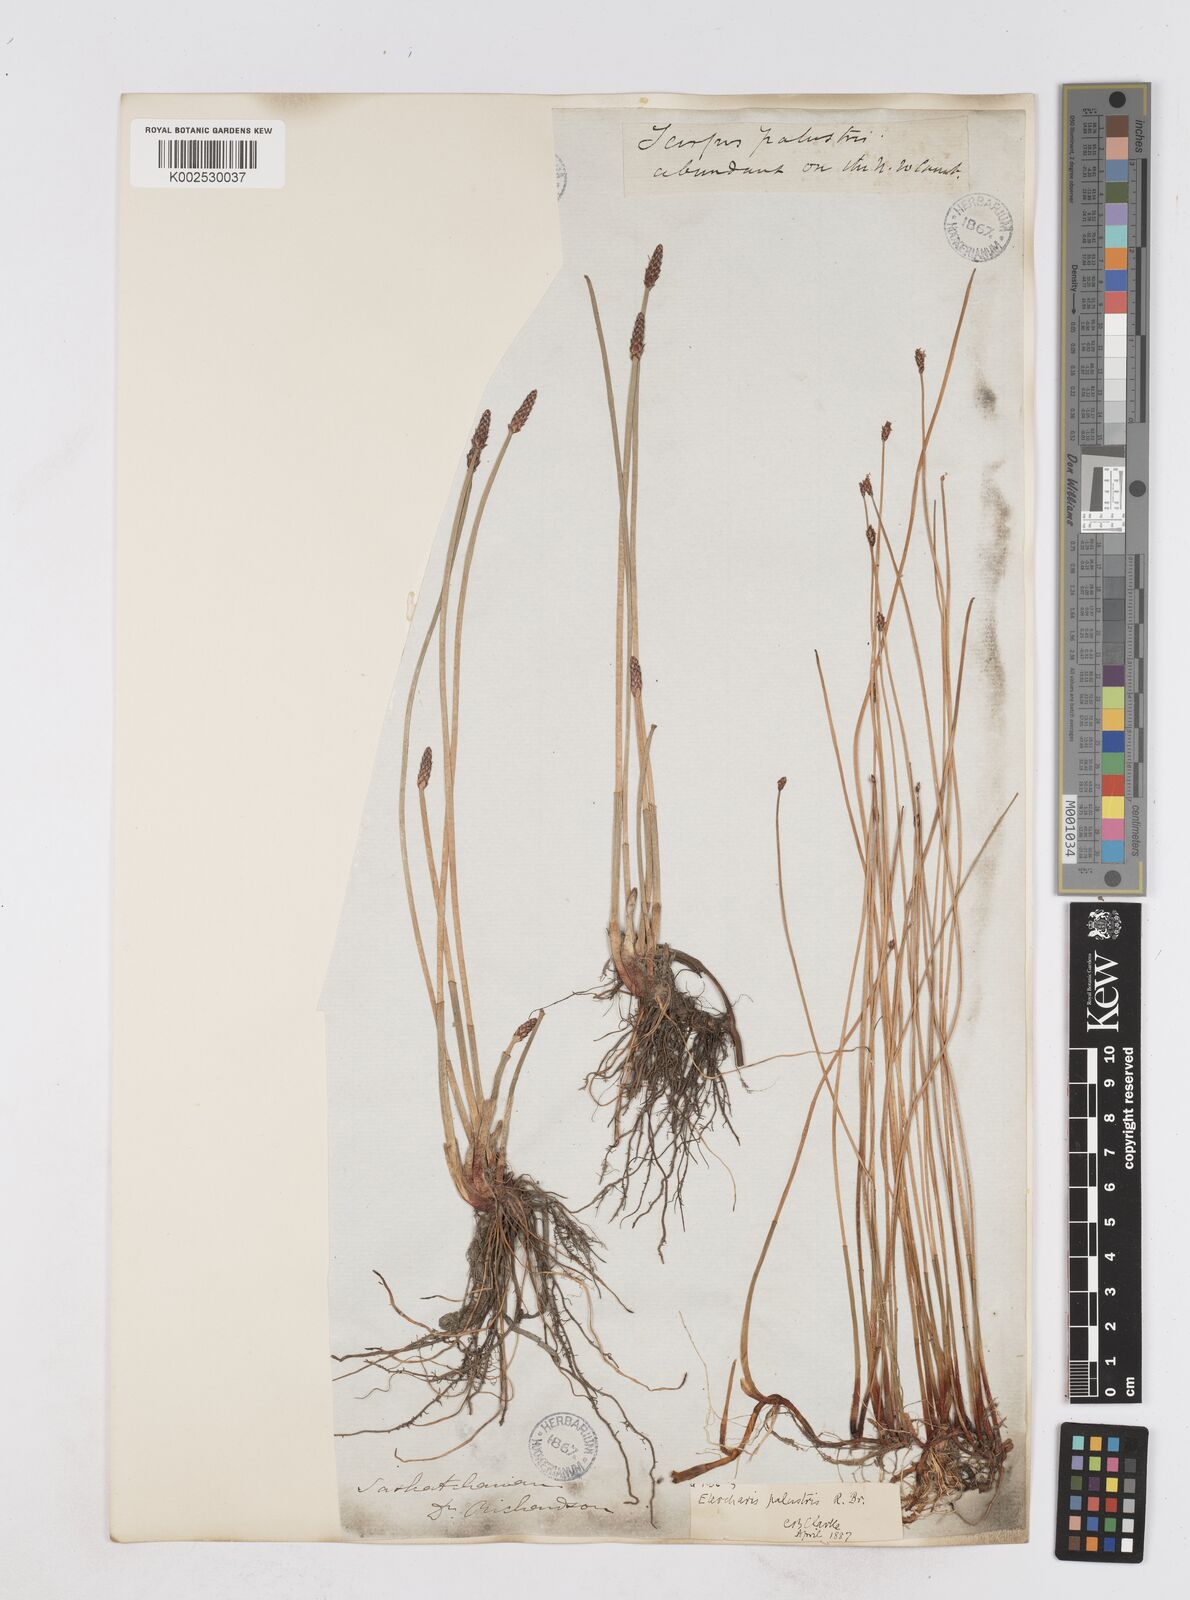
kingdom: Plantae
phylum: Tracheophyta
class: Liliopsida
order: Poales
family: Cyperaceae
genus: Eleocharis
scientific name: Eleocharis palustris
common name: Common spike-rush
